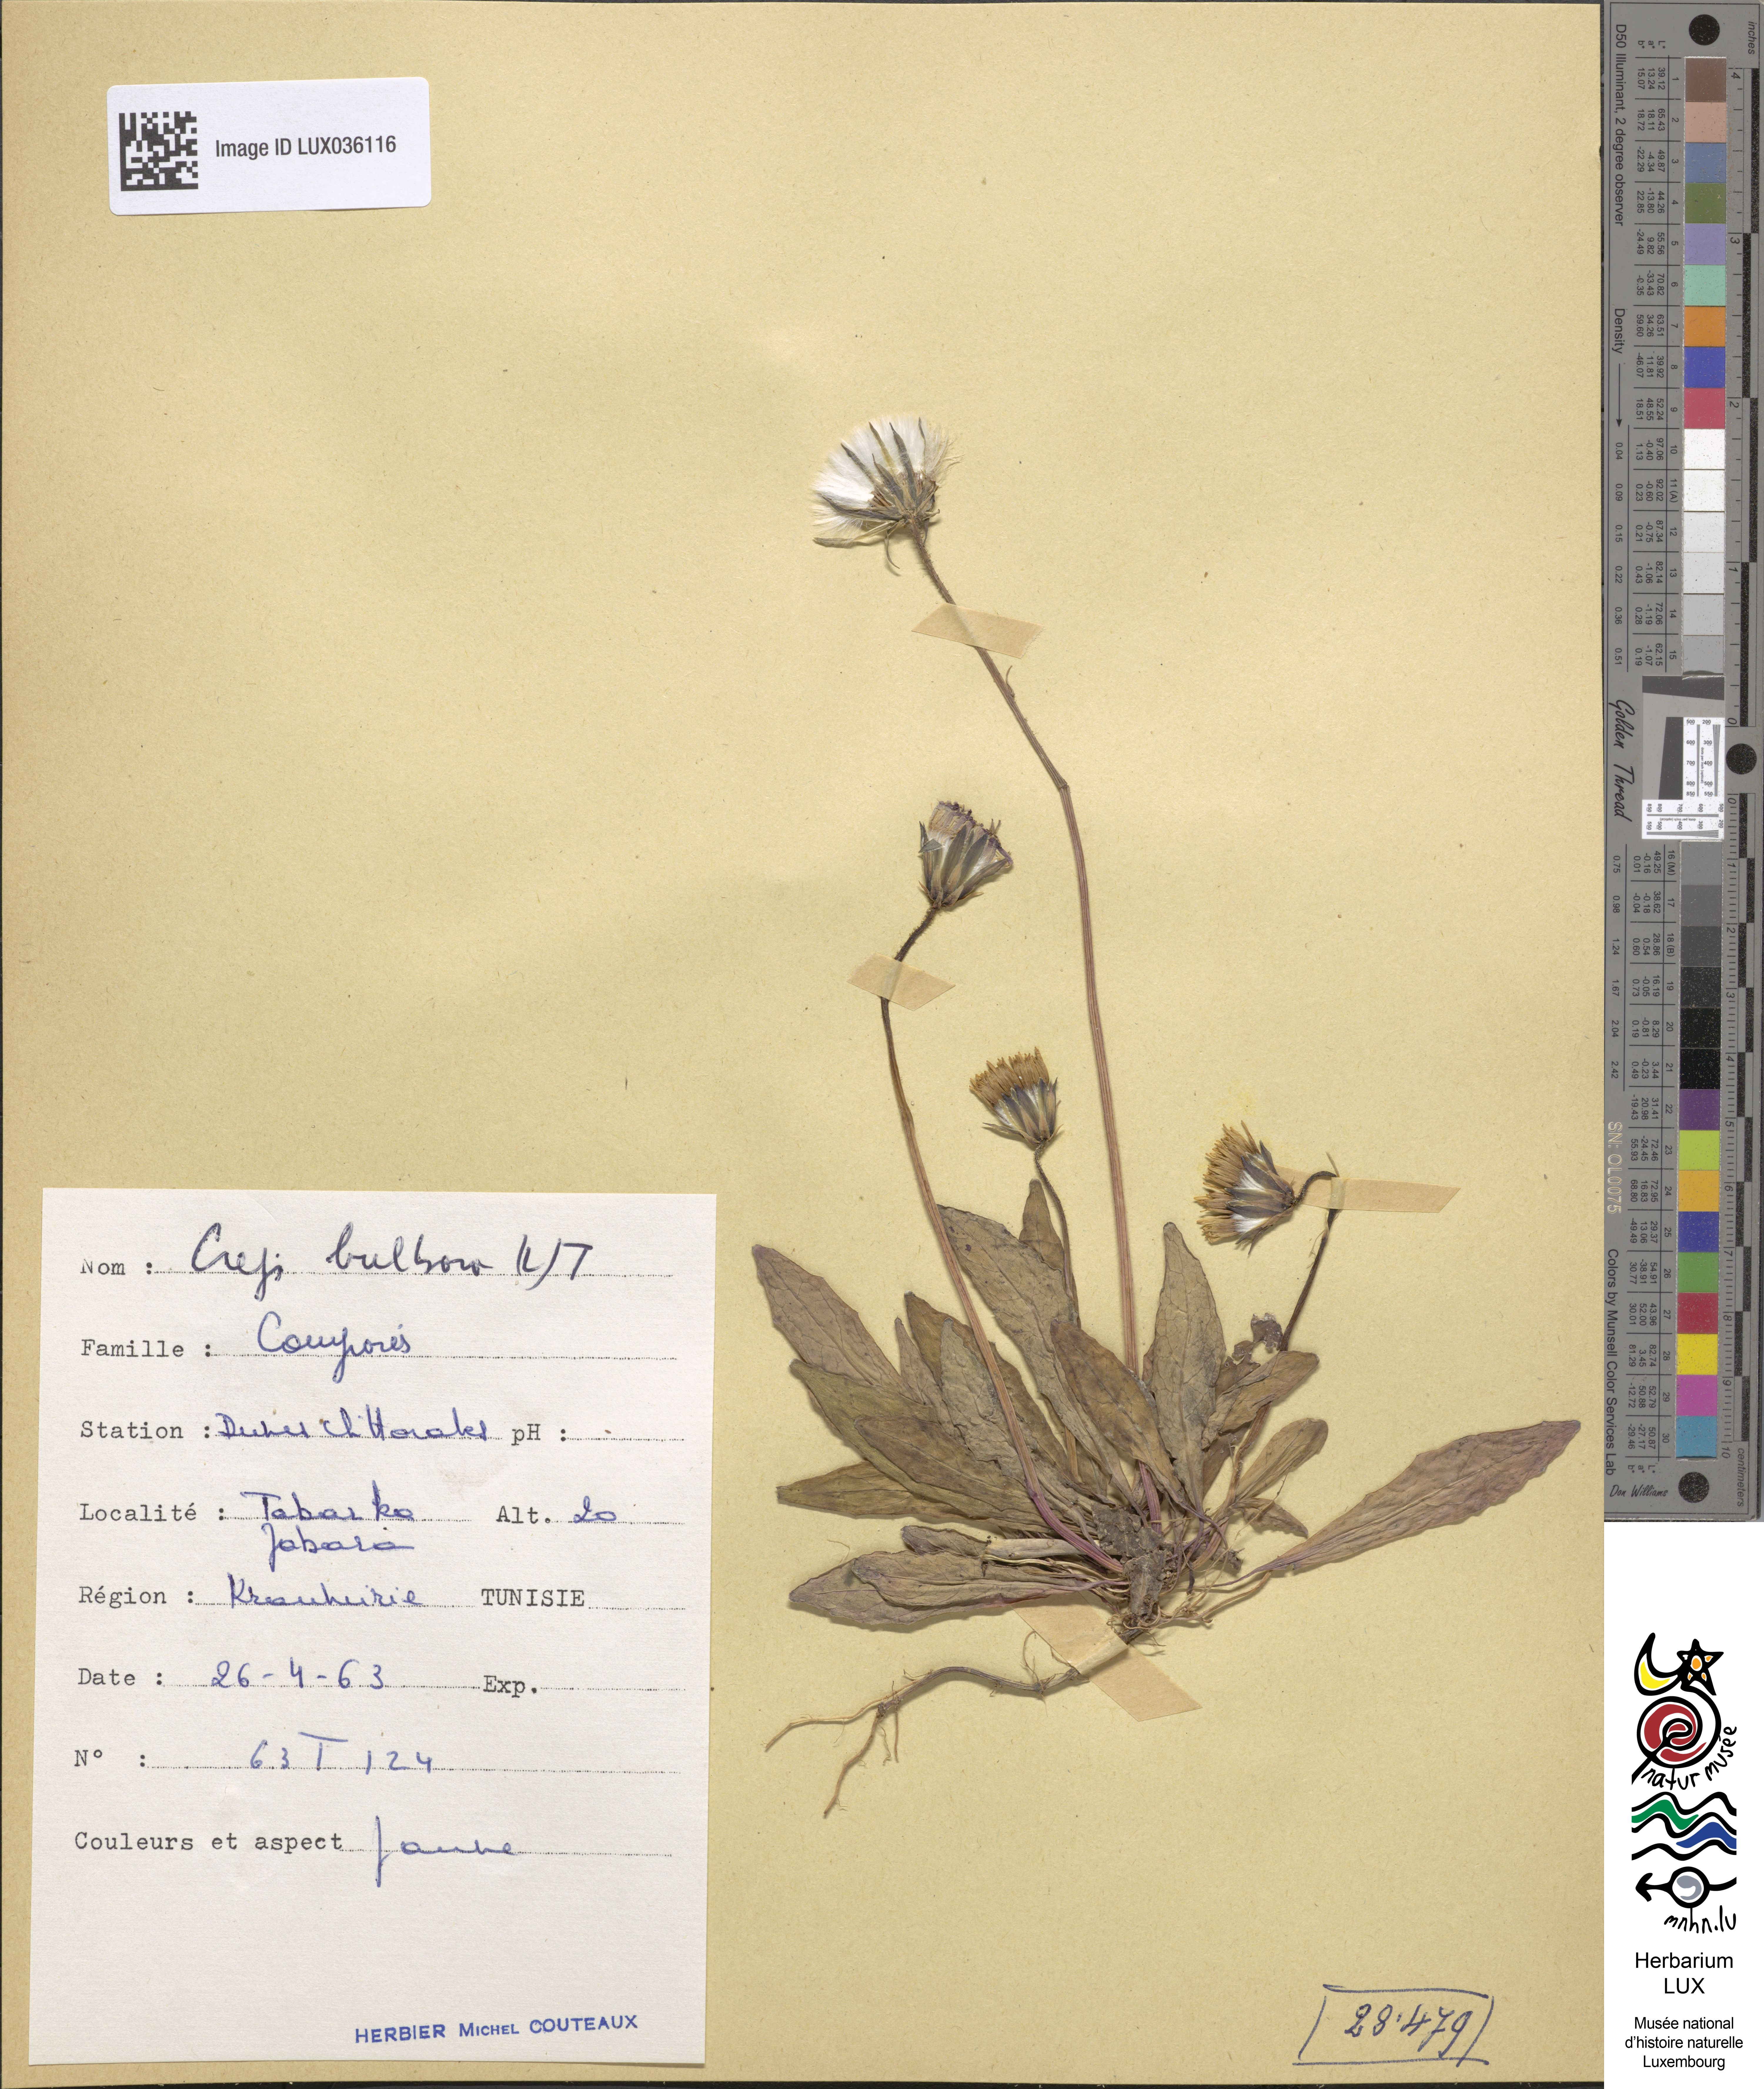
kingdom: Plantae
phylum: Tracheophyta
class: Magnoliopsida
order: Asterales
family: Asteraceae
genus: Aetheorhiza
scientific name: Aetheorhiza bulbosa
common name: Tuberous hawk's-beard
